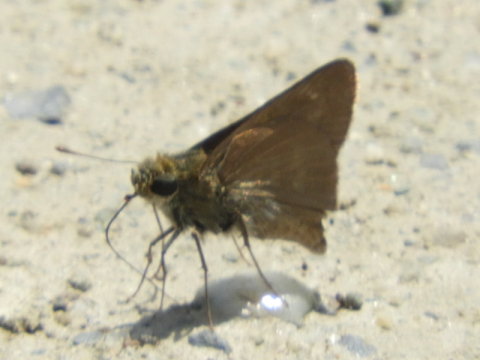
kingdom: Animalia
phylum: Arthropoda
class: Insecta
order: Lepidoptera
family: Hesperiidae
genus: Euphyes
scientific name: Euphyes vestris
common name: Dun Skipper
